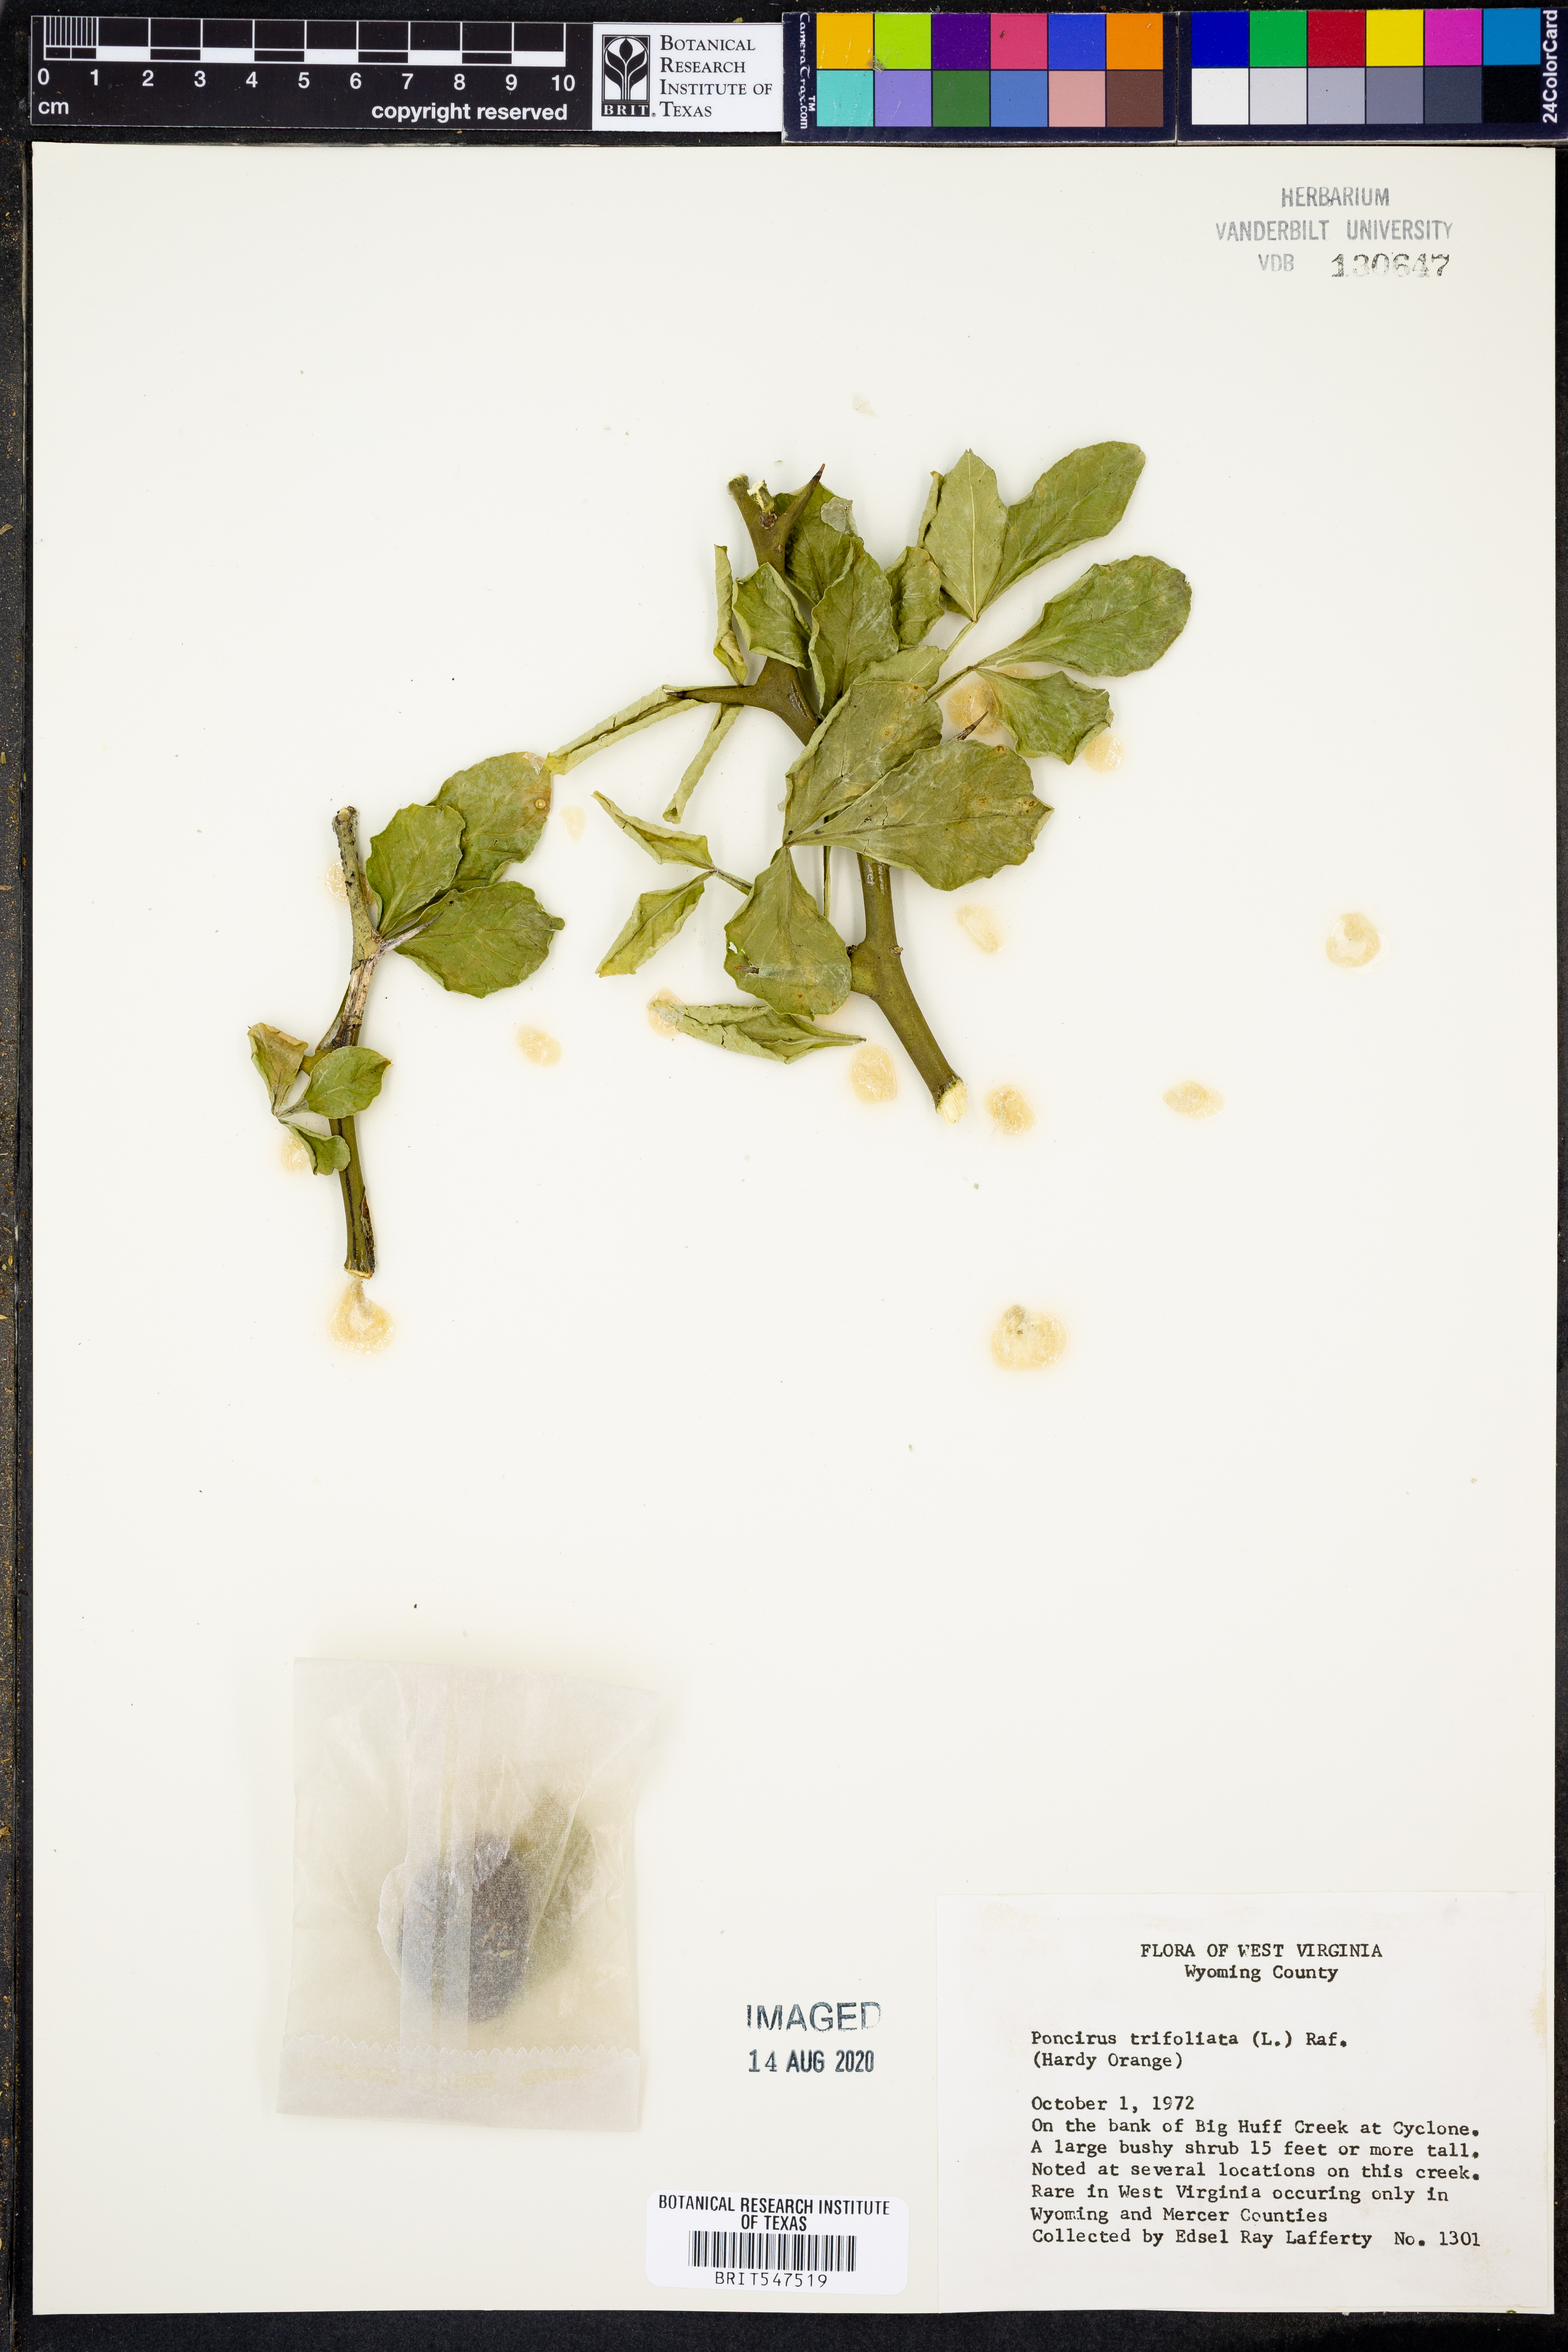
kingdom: Plantae
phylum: Tracheophyta
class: Magnoliopsida
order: Sapindales
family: Rutaceae
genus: Citrus
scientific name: Citrus trifoliata
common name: Japanese bitter-orange
